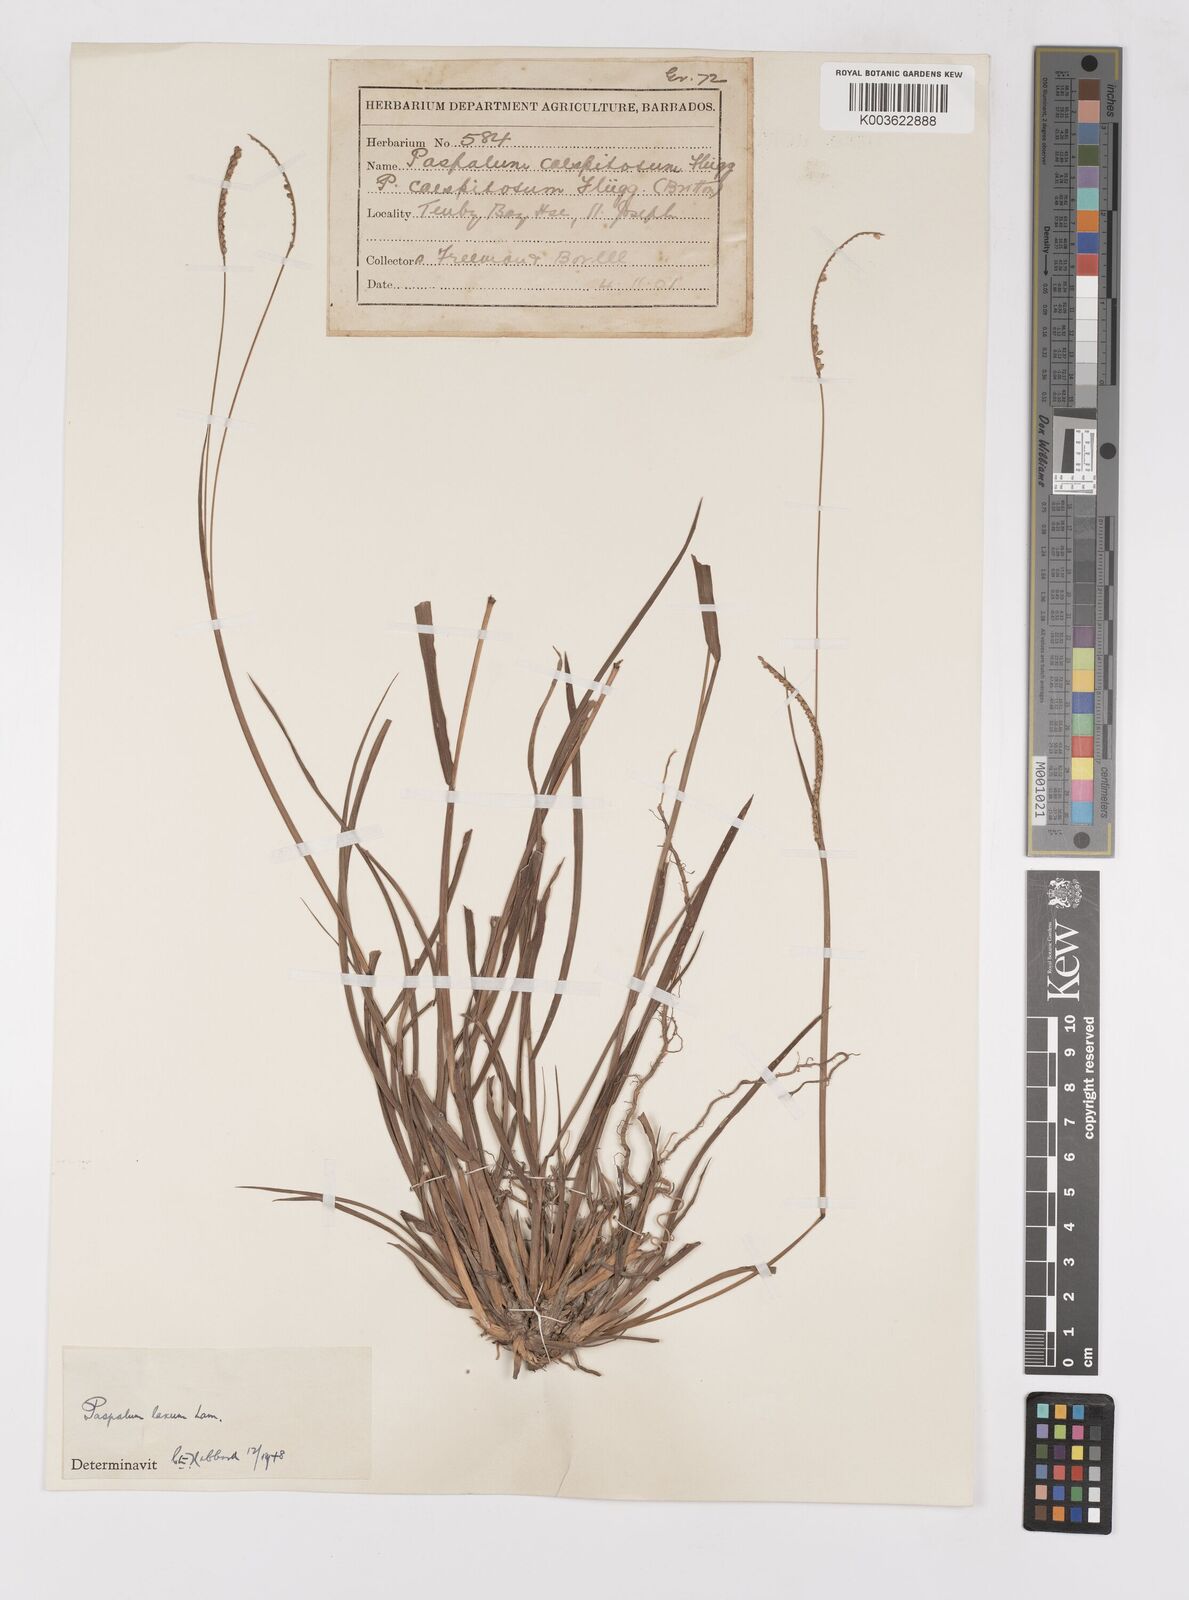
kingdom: Plantae
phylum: Tracheophyta
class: Liliopsida
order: Poales
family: Poaceae
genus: Paspalum
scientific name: Paspalum laxum
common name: Coconut paspalum
